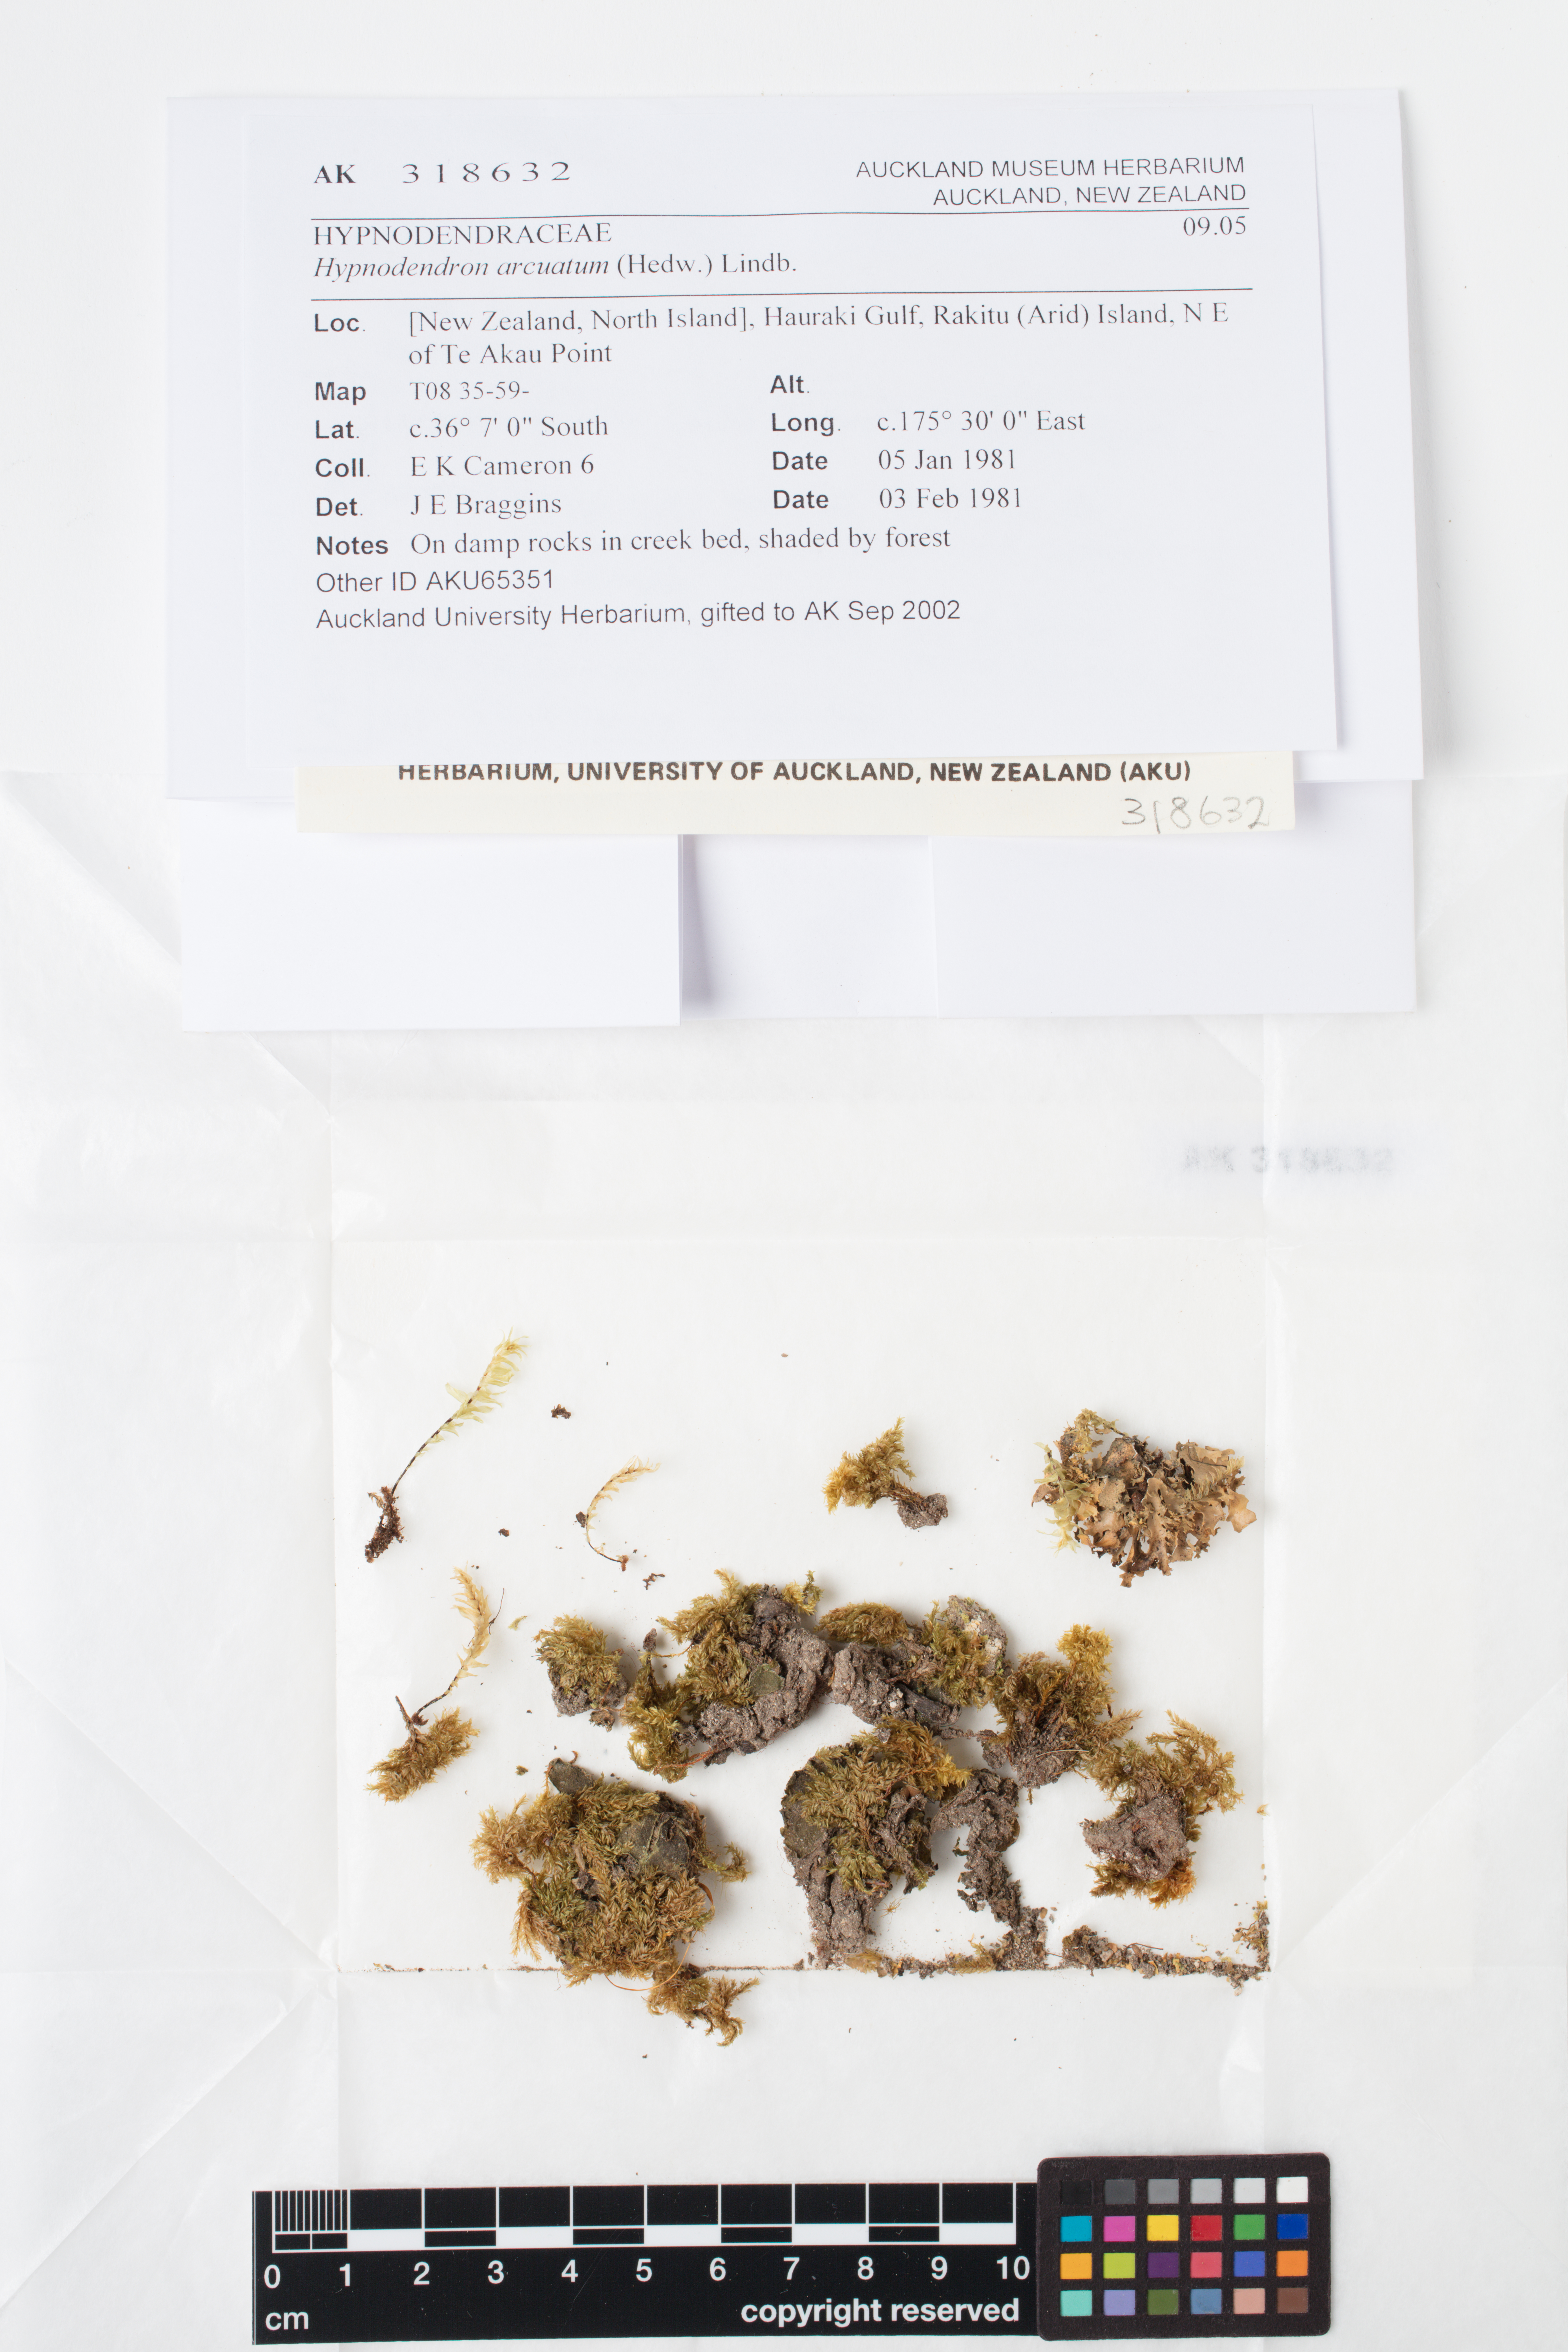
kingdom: Plantae
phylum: Bryophyta
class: Bryopsida
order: Hypnodendrales
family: Spiridentaceae
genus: Hypnodendron
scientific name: Hypnodendron arcuatum
